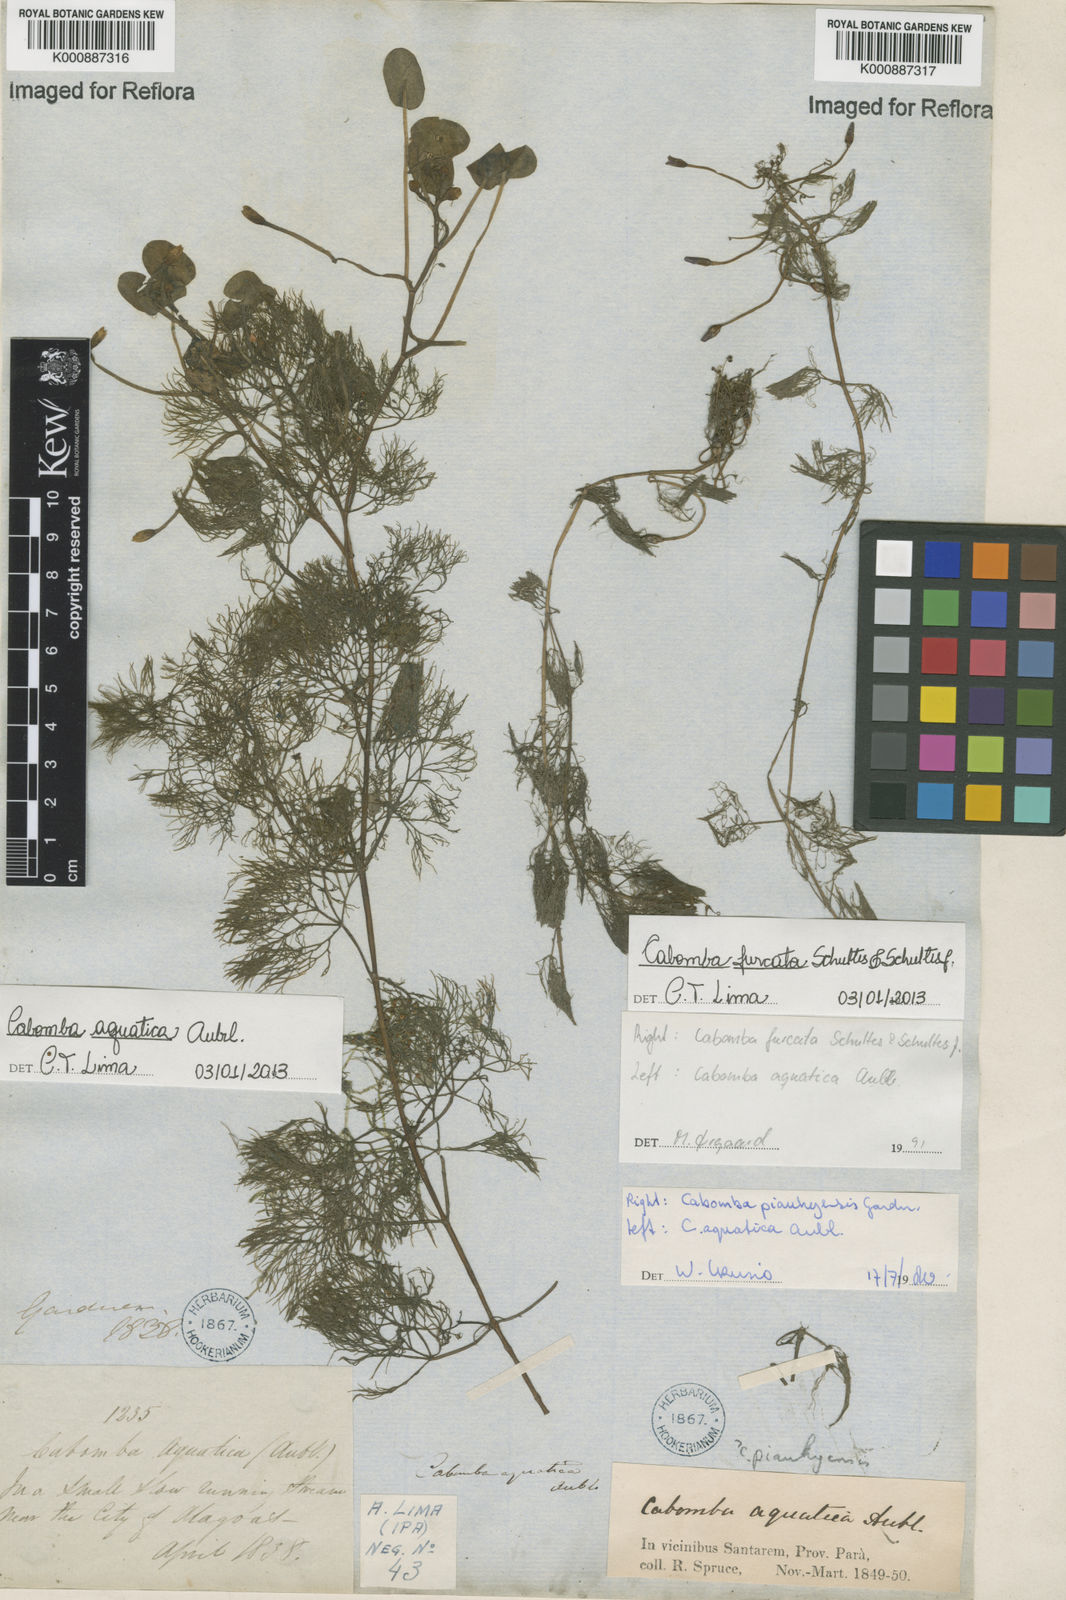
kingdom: Plantae
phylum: Tracheophyta
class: Magnoliopsida
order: Nymphaeales
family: Cabombaceae
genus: Cabomba
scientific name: Cabomba aquatica
